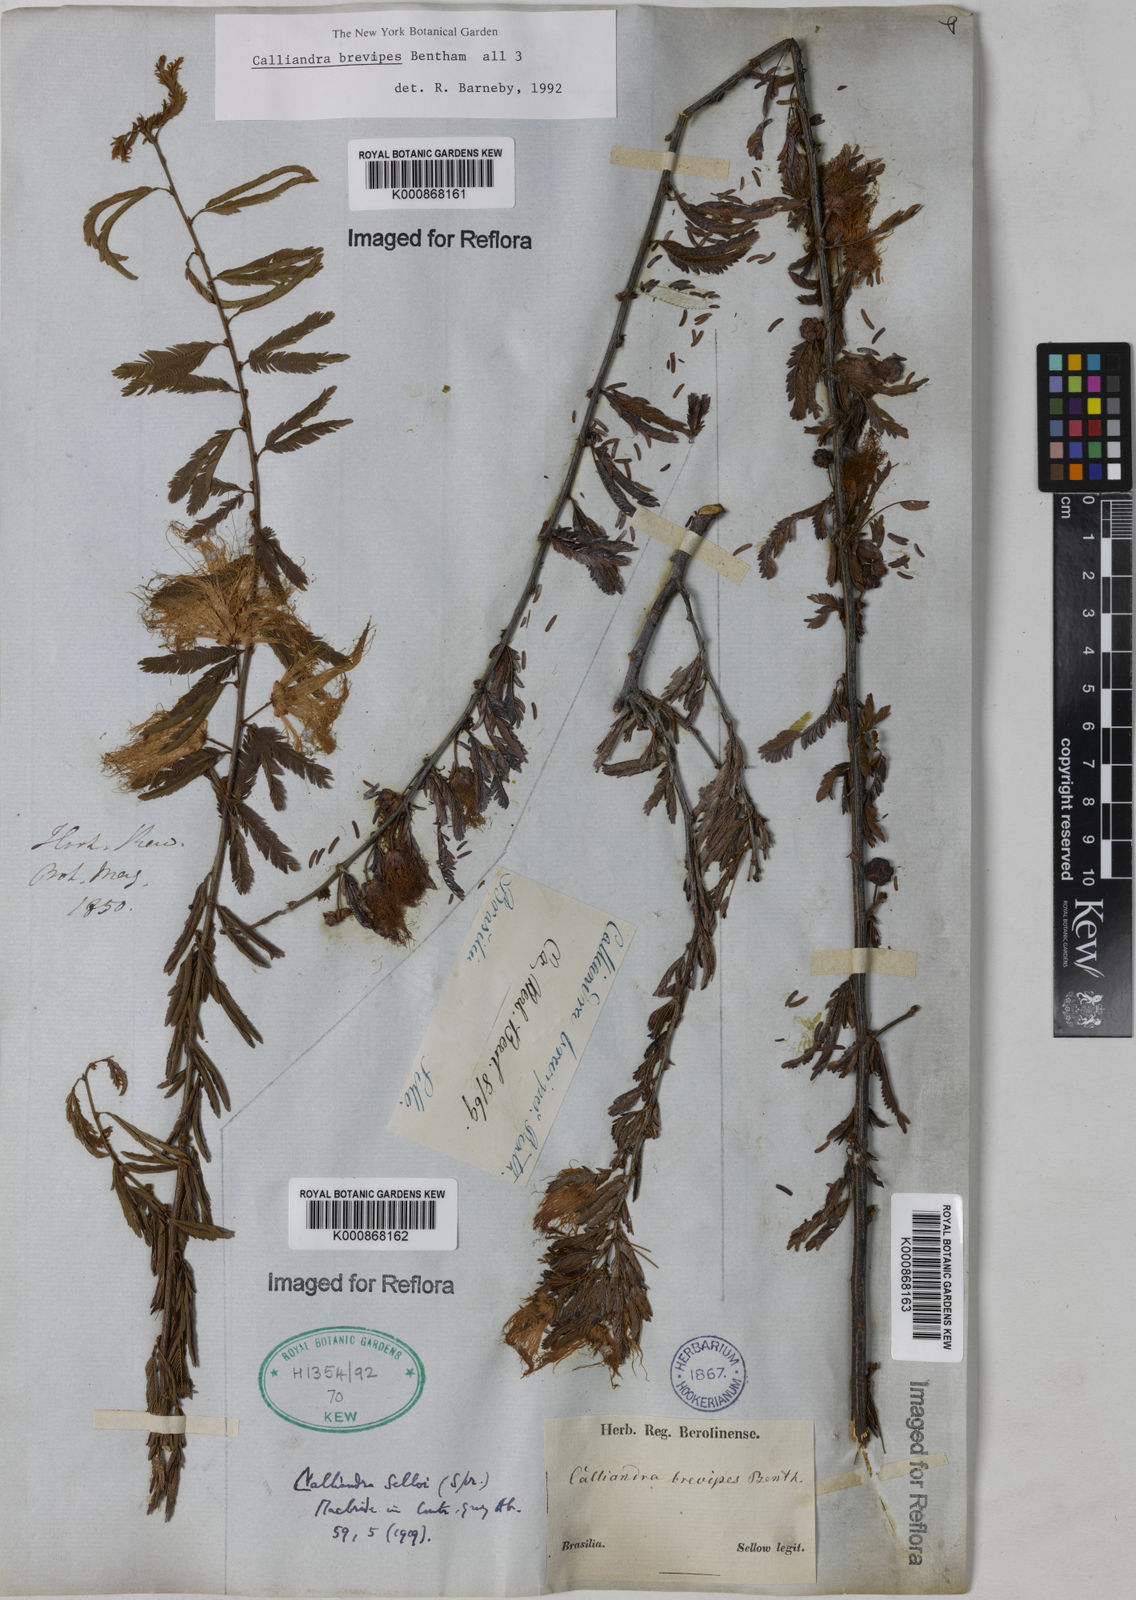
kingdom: Plantae
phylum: Tracheophyta
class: Magnoliopsida
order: Fabales
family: Fabaceae
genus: Calliandra
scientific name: Calliandra selloi
